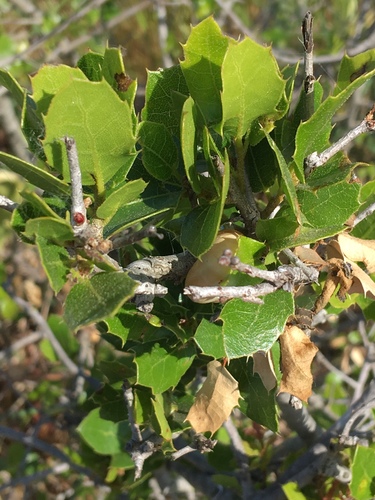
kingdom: Plantae
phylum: Tracheophyta
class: Magnoliopsida
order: Fagales
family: Fagaceae
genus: Quercus
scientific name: Quercus coccifera
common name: Kermes oak
